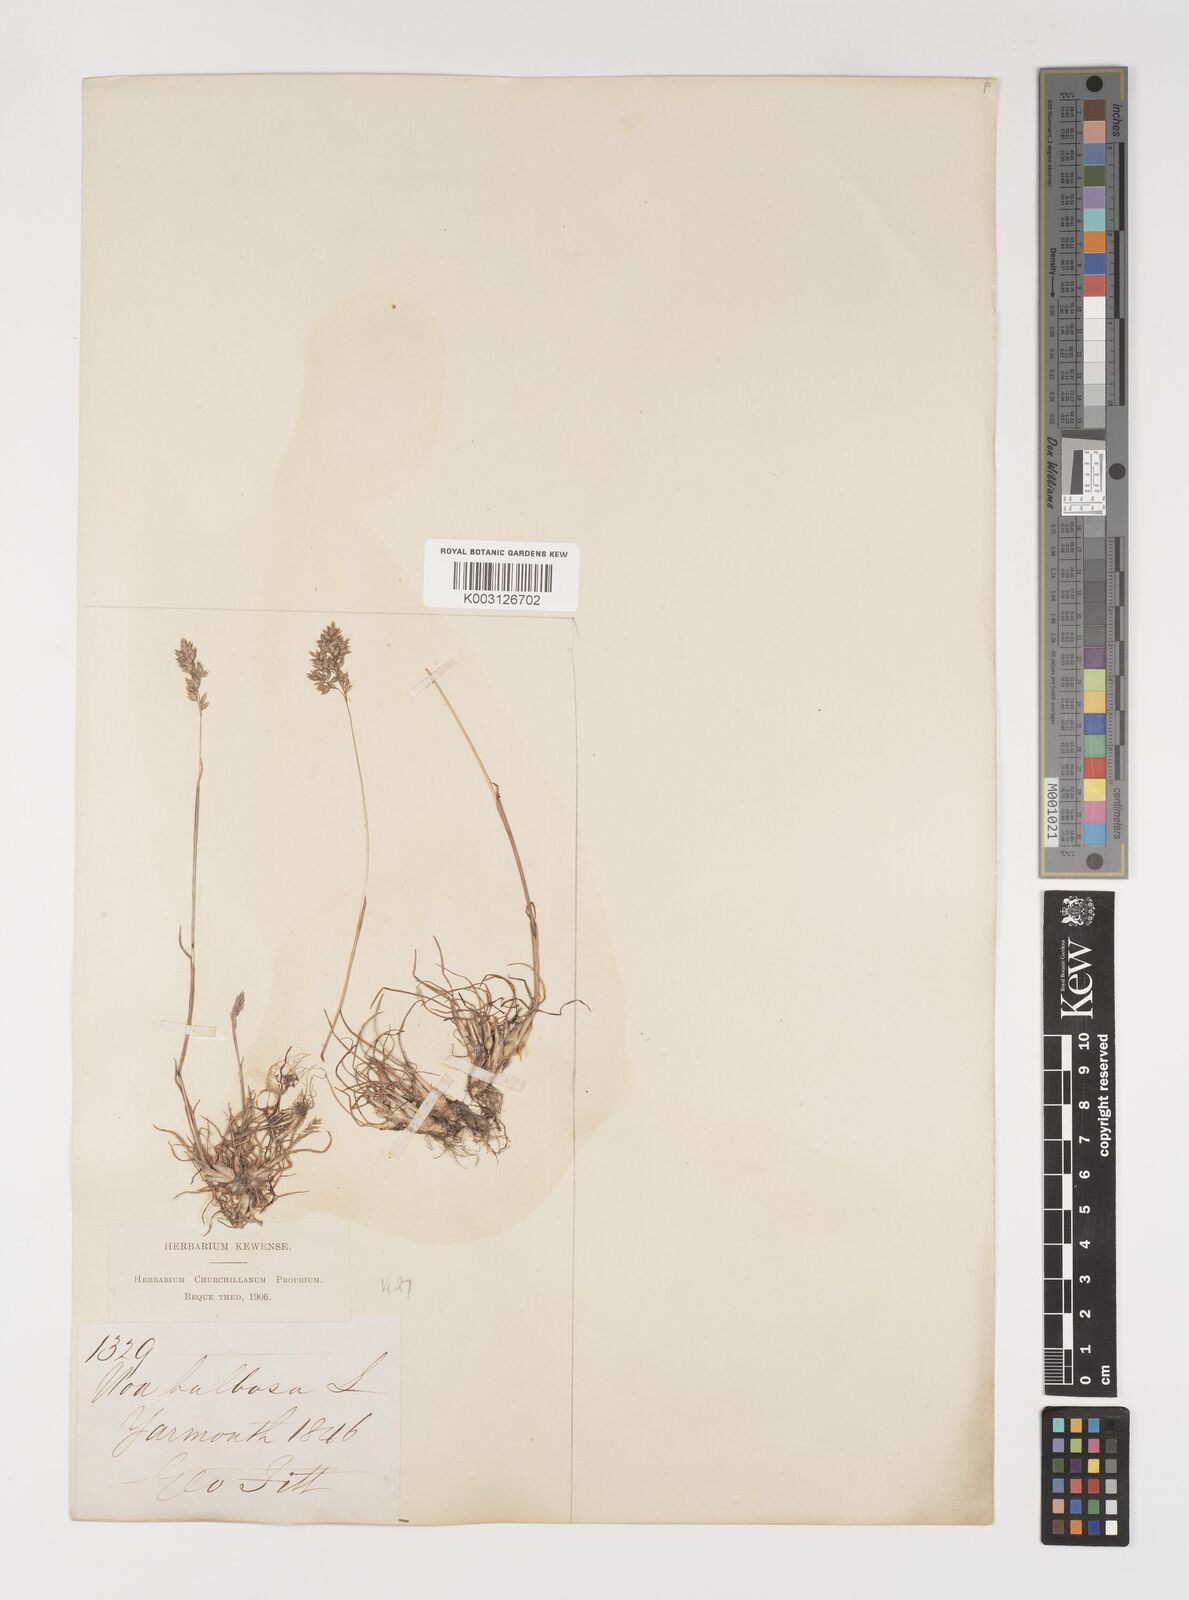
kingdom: Plantae
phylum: Tracheophyta
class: Liliopsida
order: Poales
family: Poaceae
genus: Poa
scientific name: Poa bulbosa
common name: Bulbous bluegrass
